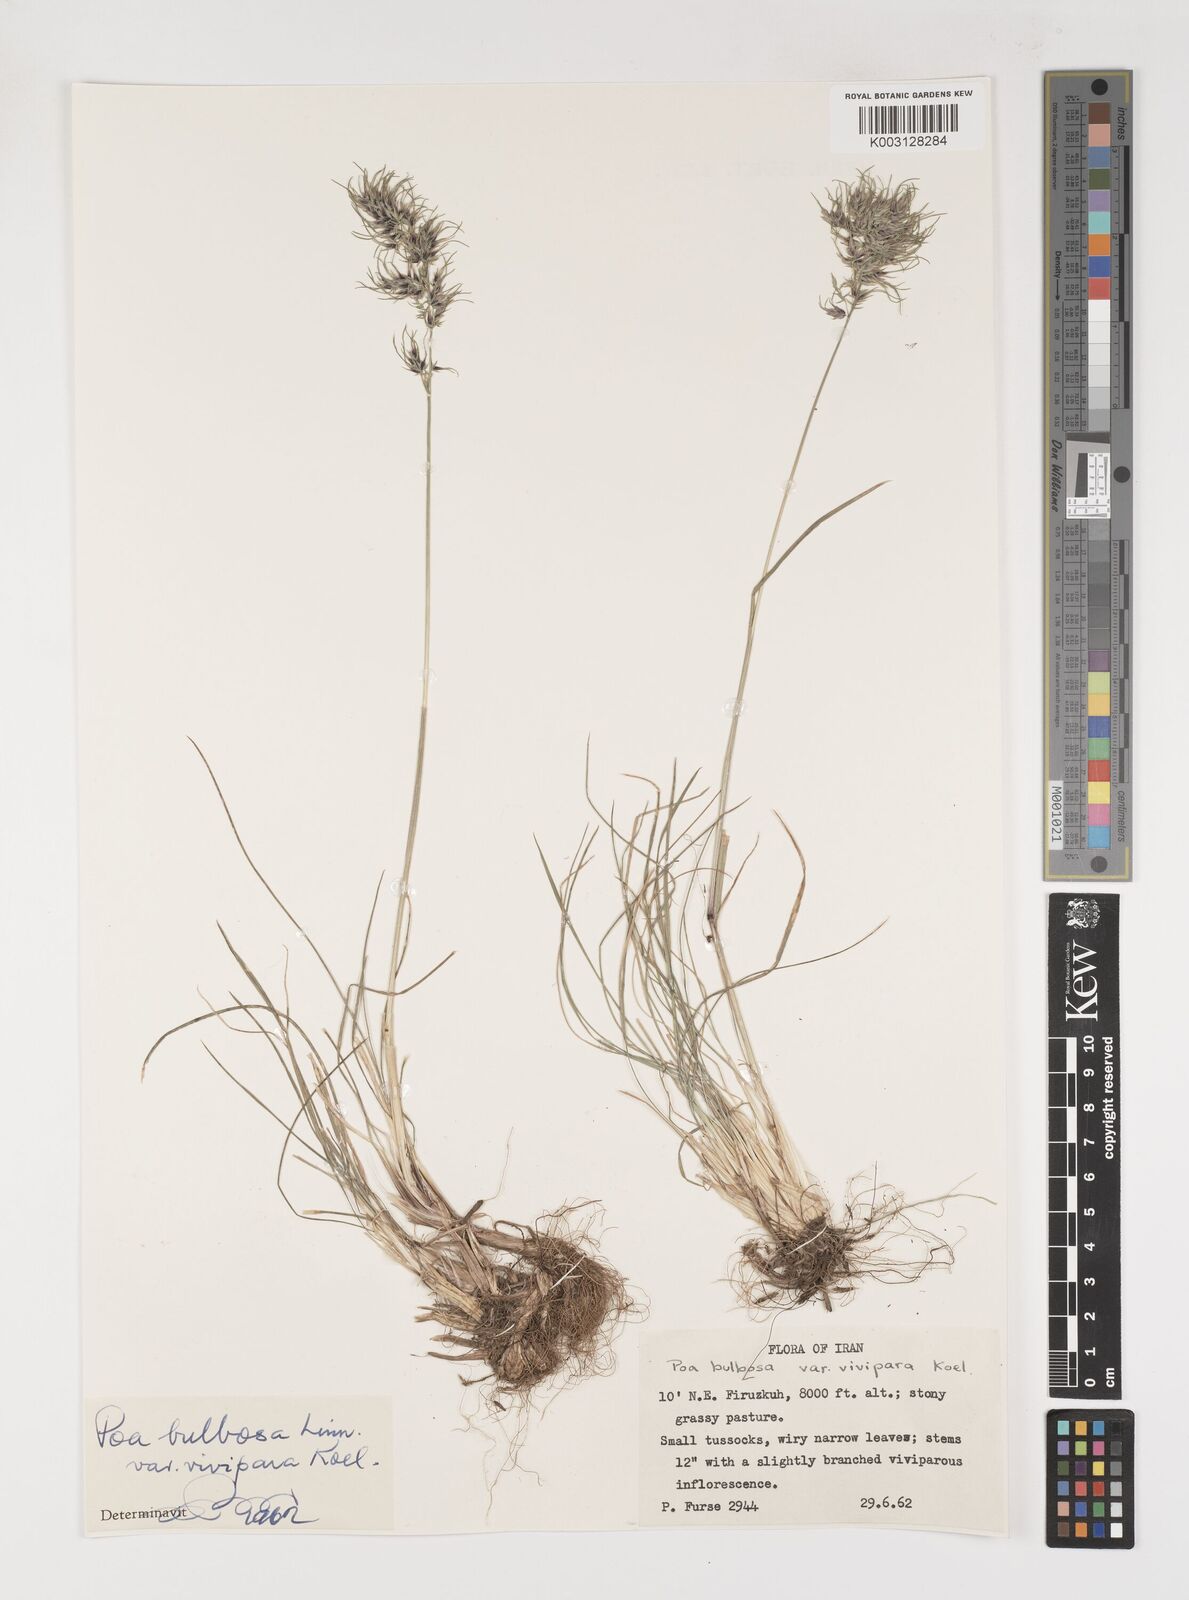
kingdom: Plantae
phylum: Tracheophyta
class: Liliopsida
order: Poales
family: Poaceae
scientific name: Poaceae
